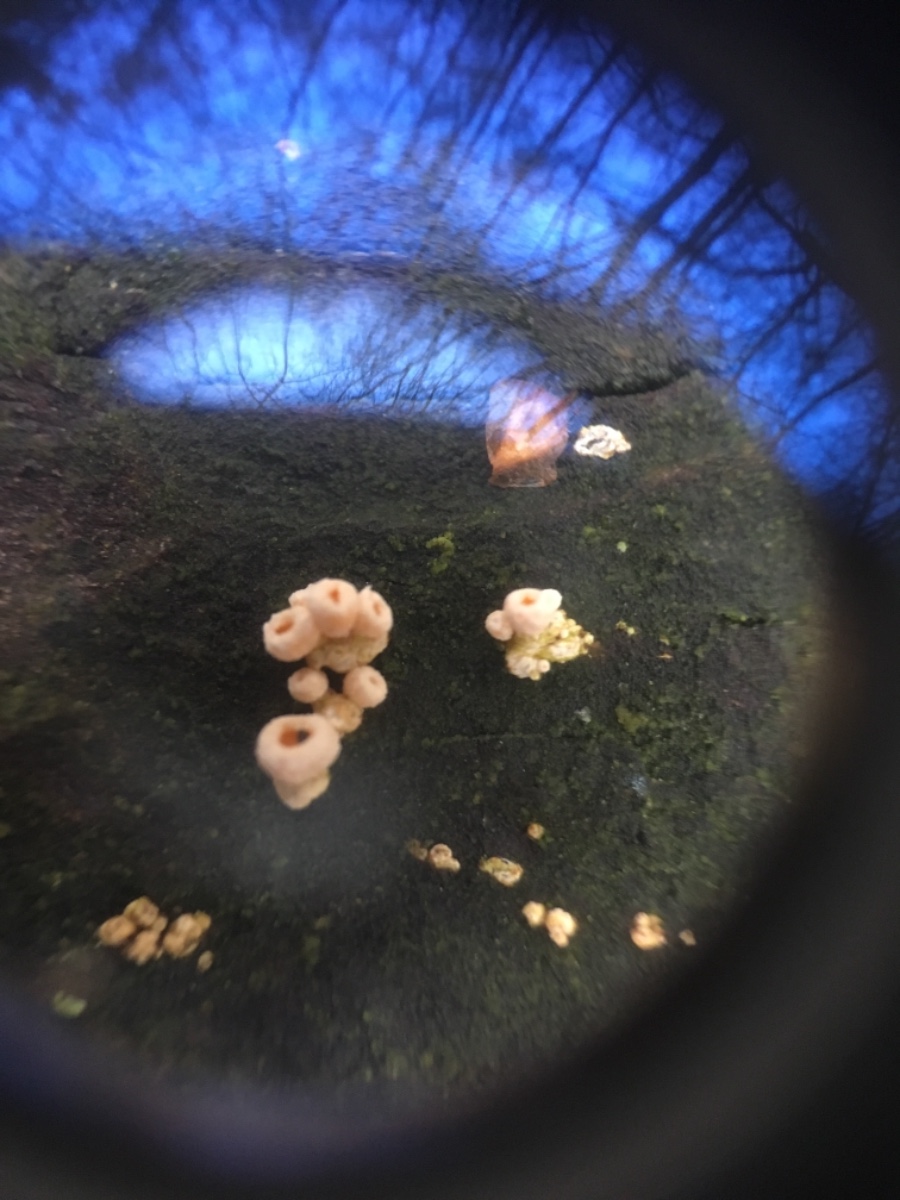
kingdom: Fungi
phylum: Ascomycota
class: Leotiomycetes
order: Helotiales
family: Lachnaceae
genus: Lachnellula
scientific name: Lachnellula subtilissima
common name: gran-frynseskive
